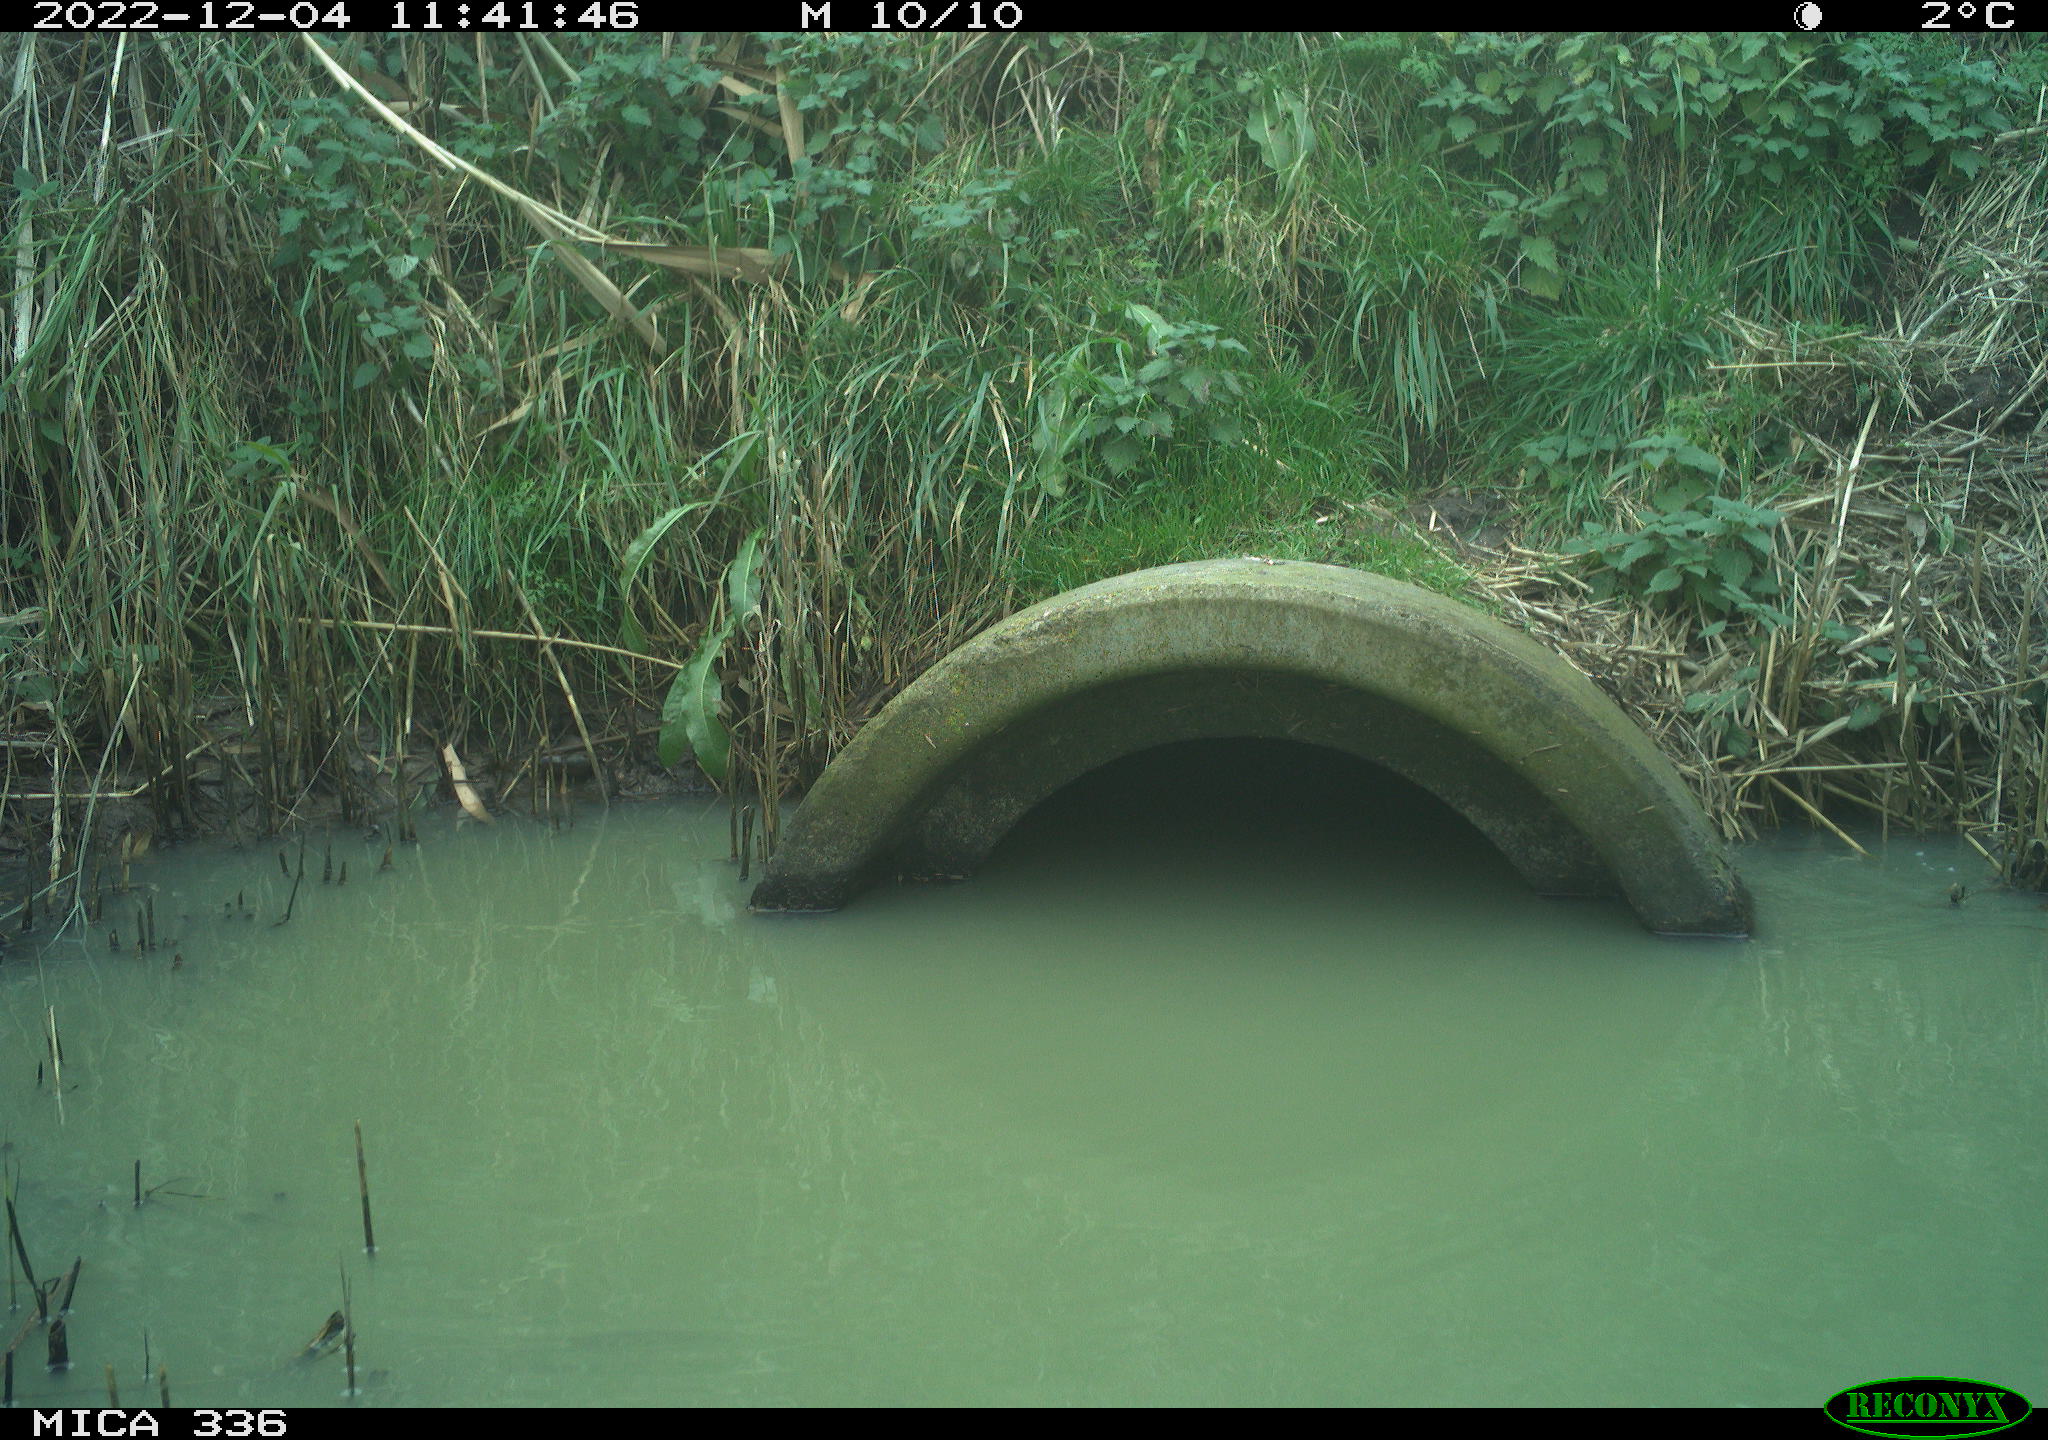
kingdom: Animalia
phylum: Chordata
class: Aves
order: Gruiformes
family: Rallidae
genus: Rallus
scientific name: Rallus aquaticus
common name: Water rail
